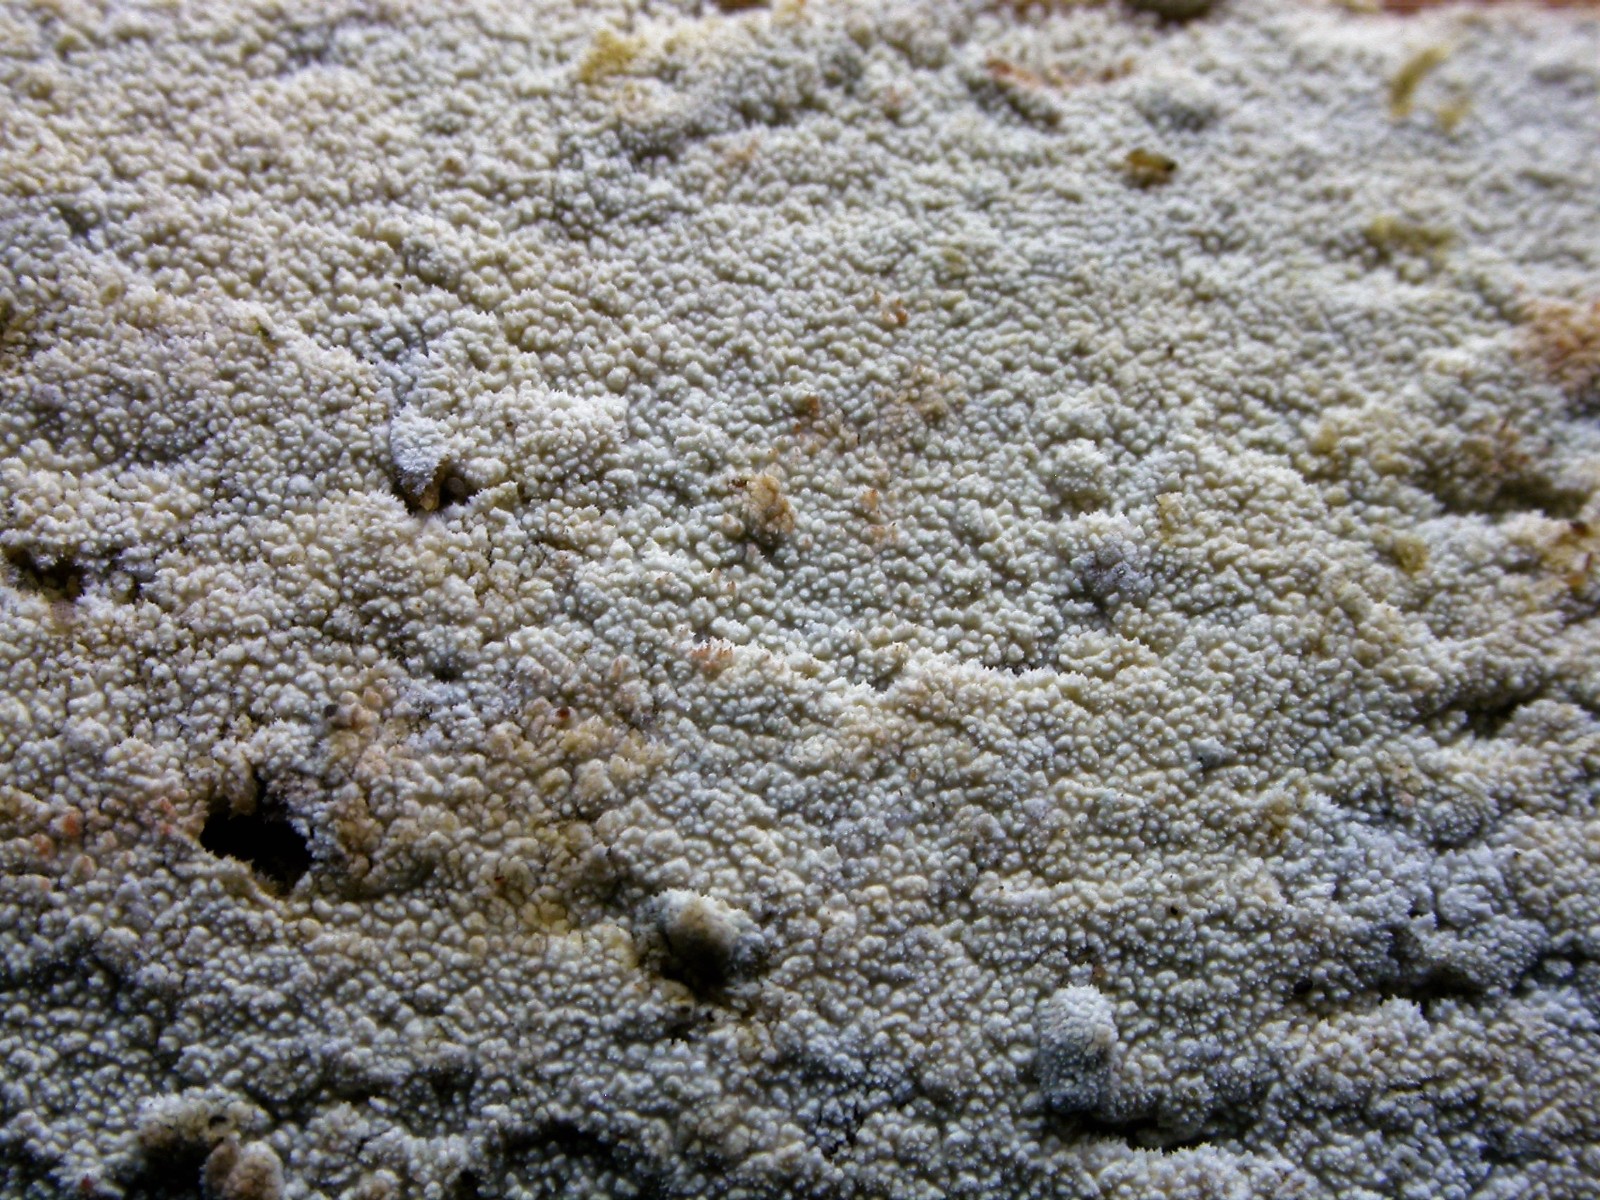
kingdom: Fungi
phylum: Basidiomycota
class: Agaricomycetes
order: Hymenochaetales
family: Schizoporaceae
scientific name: Schizoporaceae
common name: tandsvampfamilien
